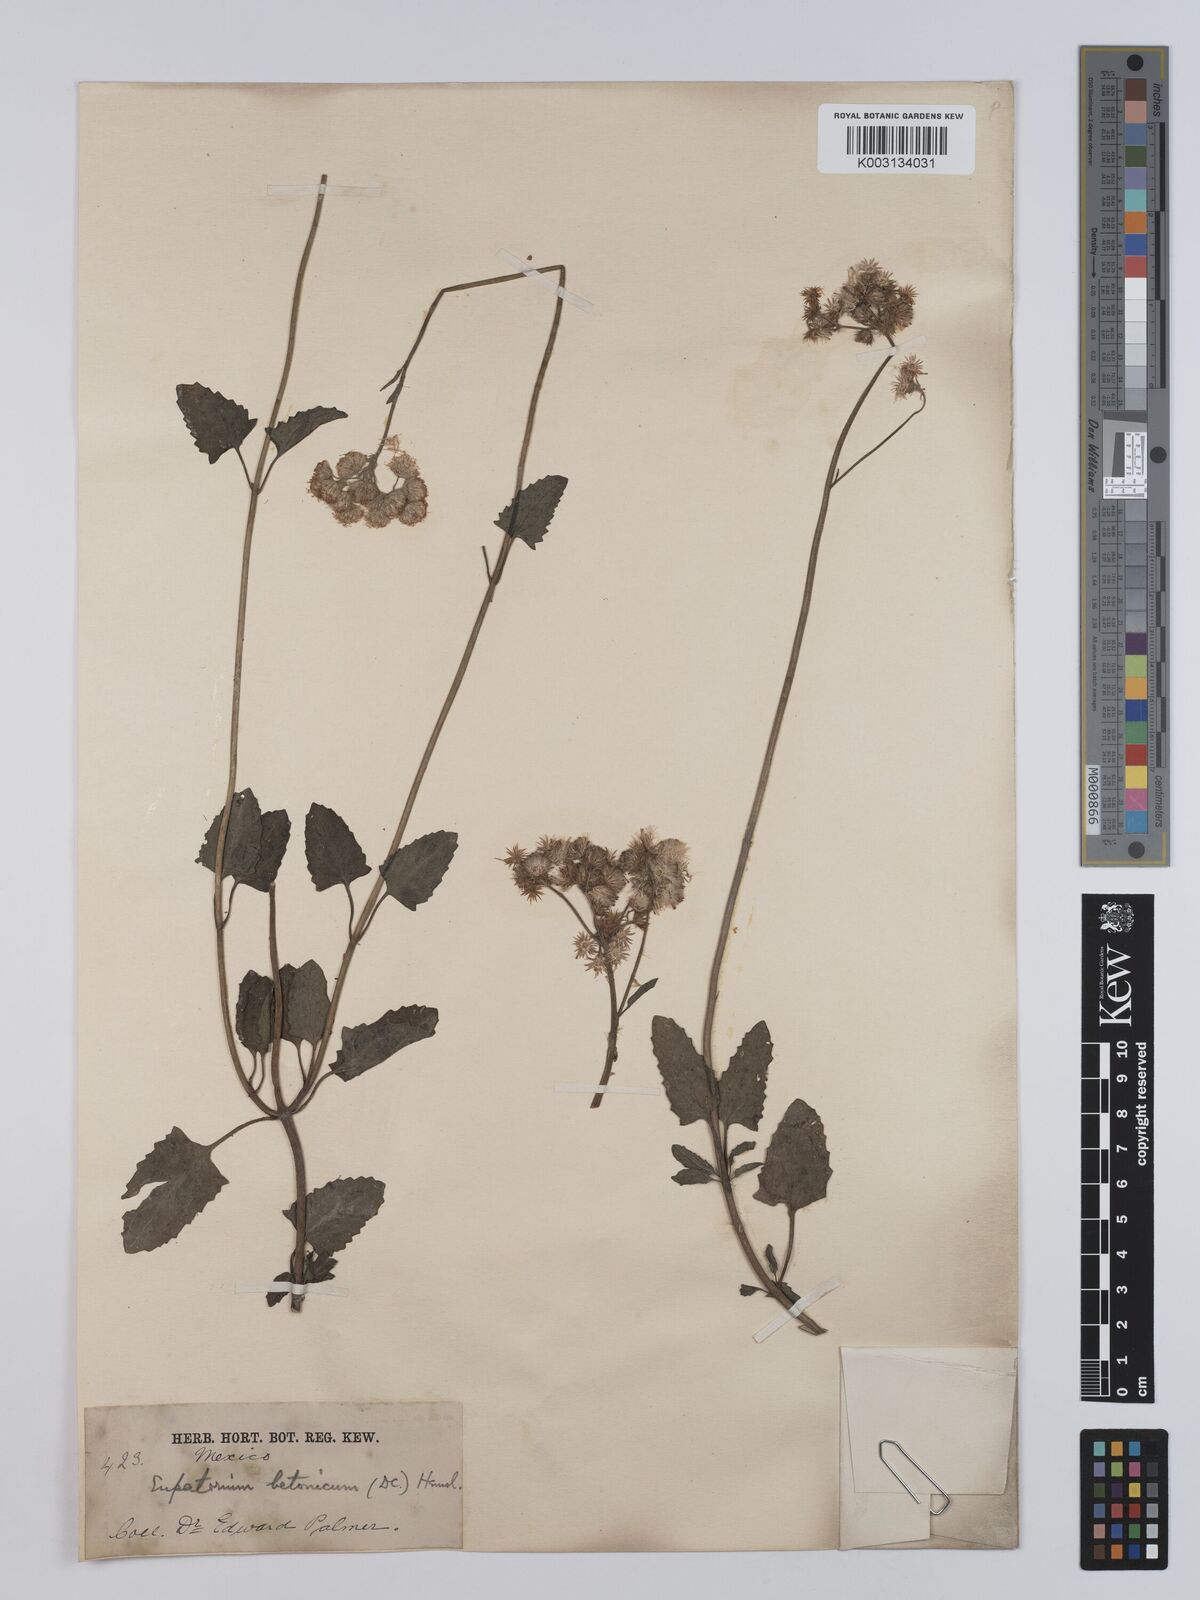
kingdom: Plantae
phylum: Tracheophyta
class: Magnoliopsida
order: Asterales
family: Asteraceae
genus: Conoclinium
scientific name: Conoclinium betonicifolium
